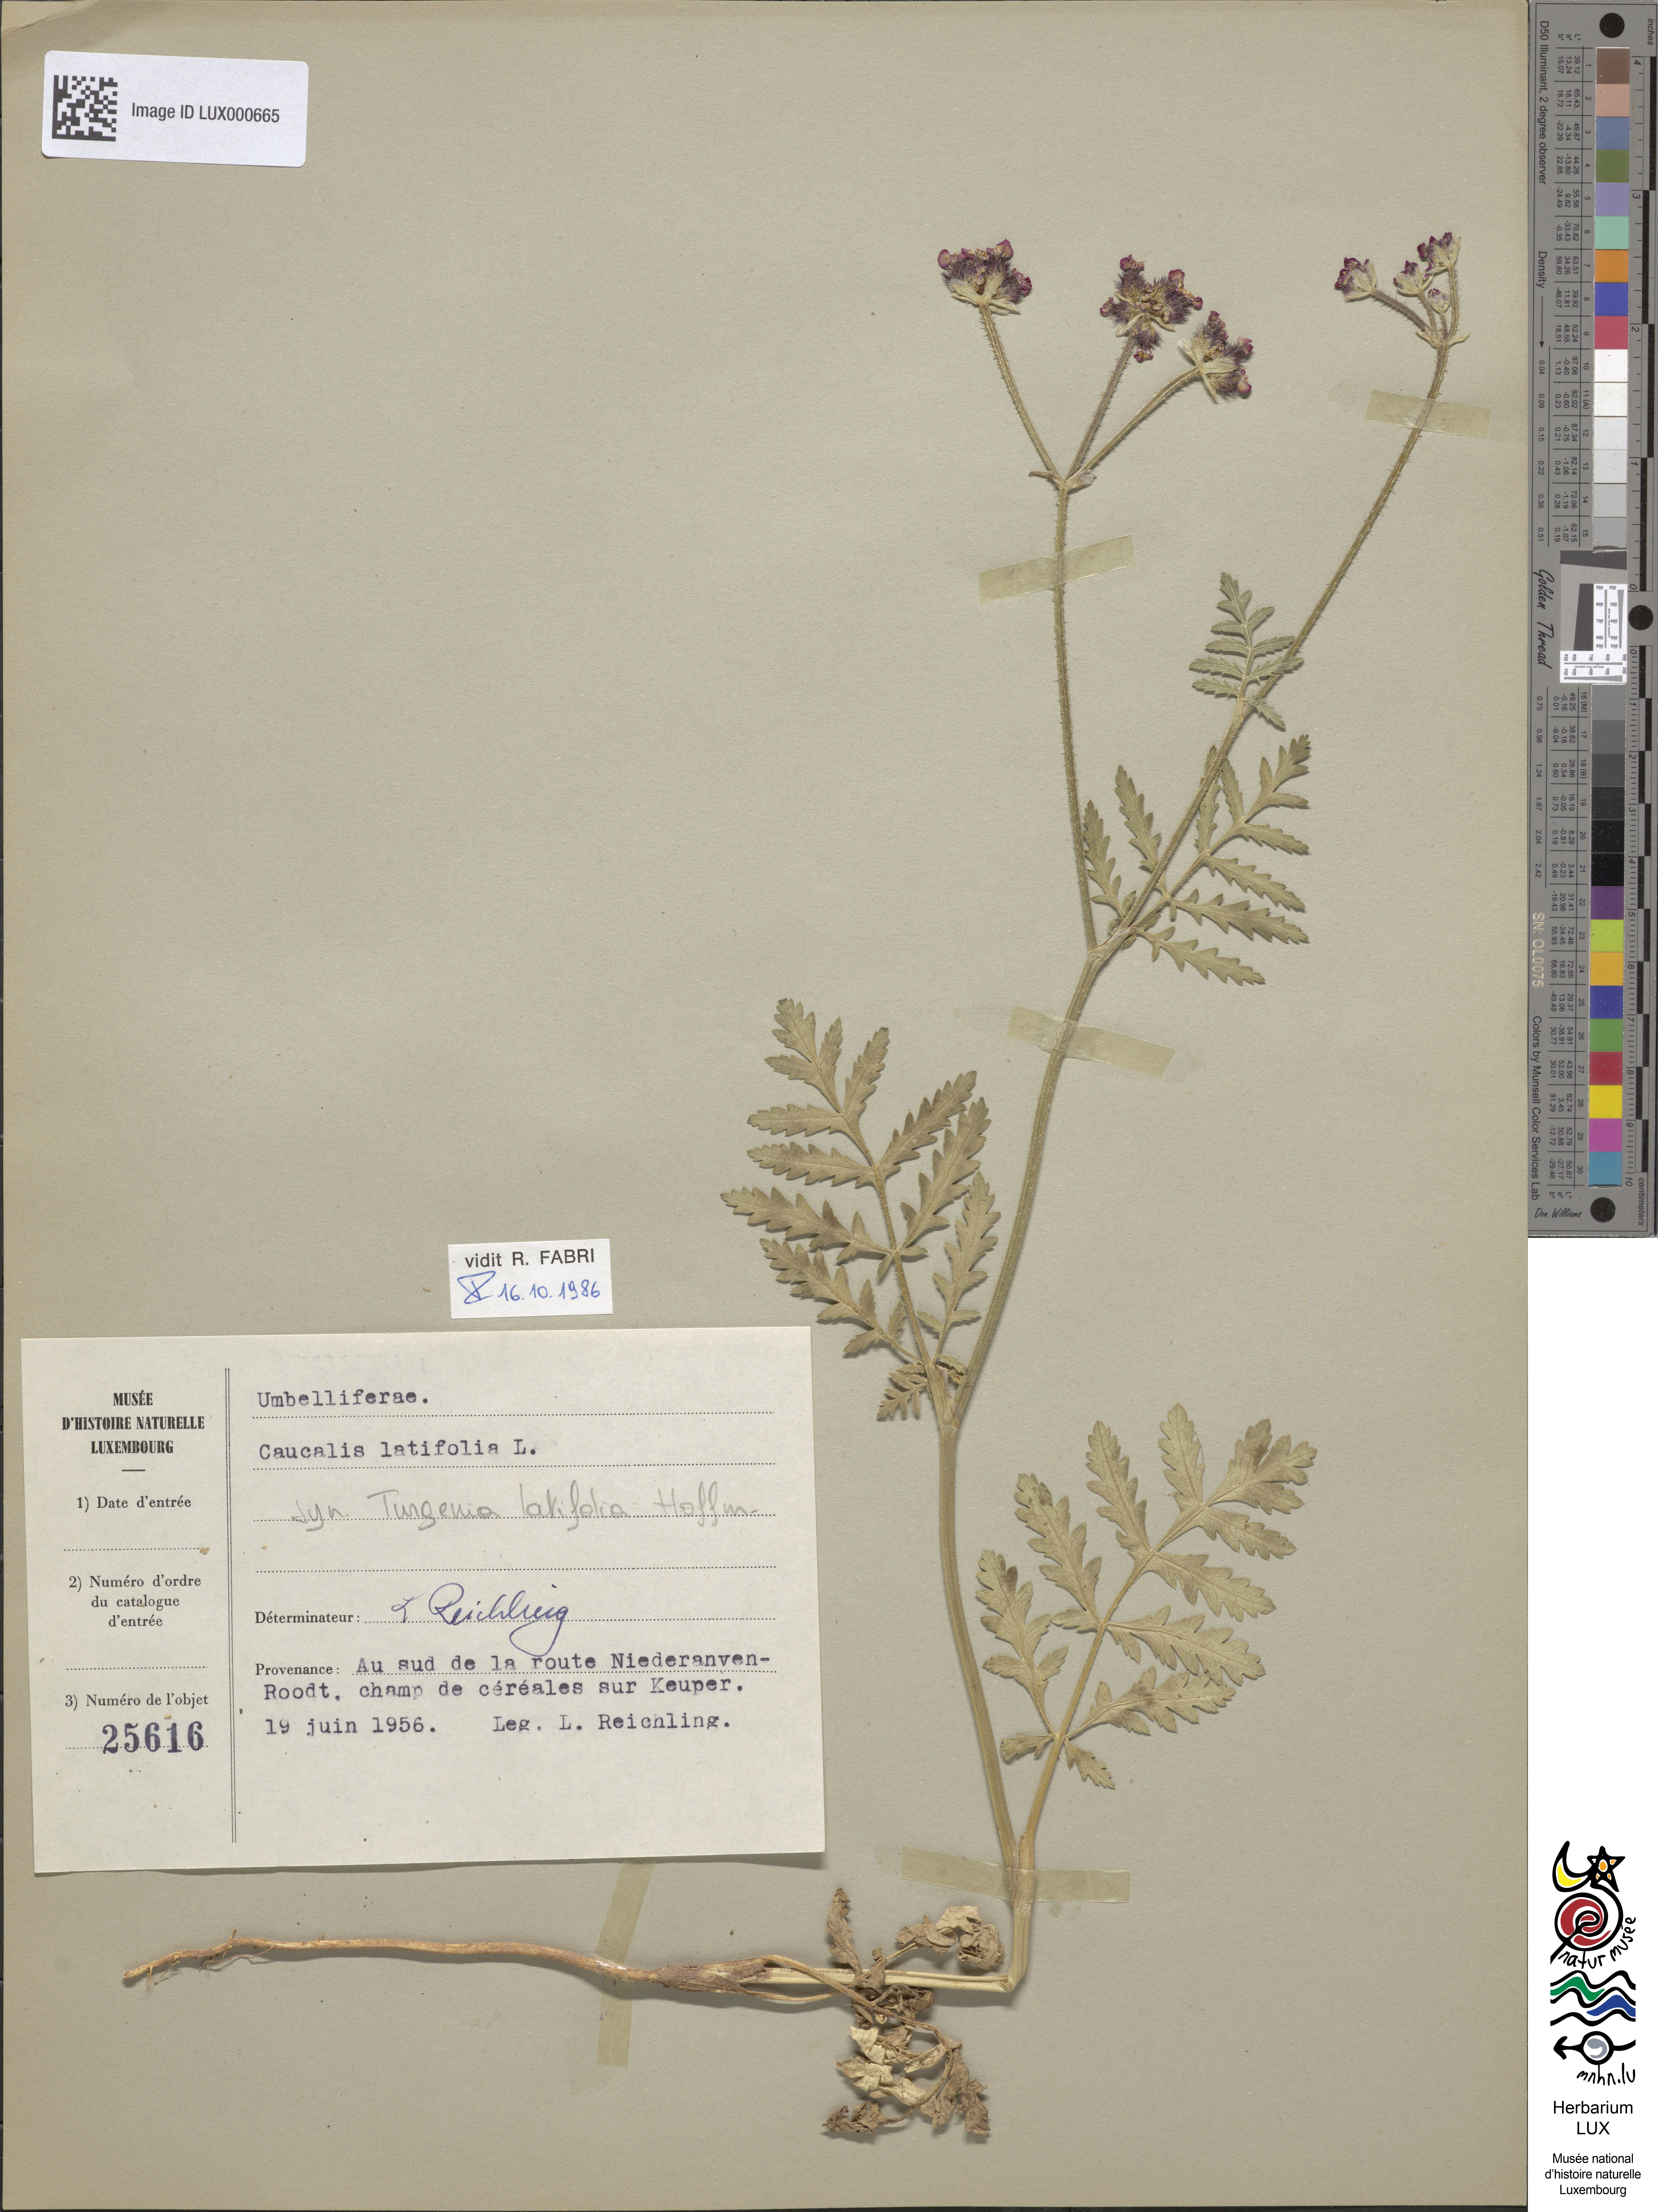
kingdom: Plantae
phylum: Tracheophyta
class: Magnoliopsida
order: Apiales
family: Apiaceae
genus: Turgenia
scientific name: Turgenia latifolia
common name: Greater bur-parsley
